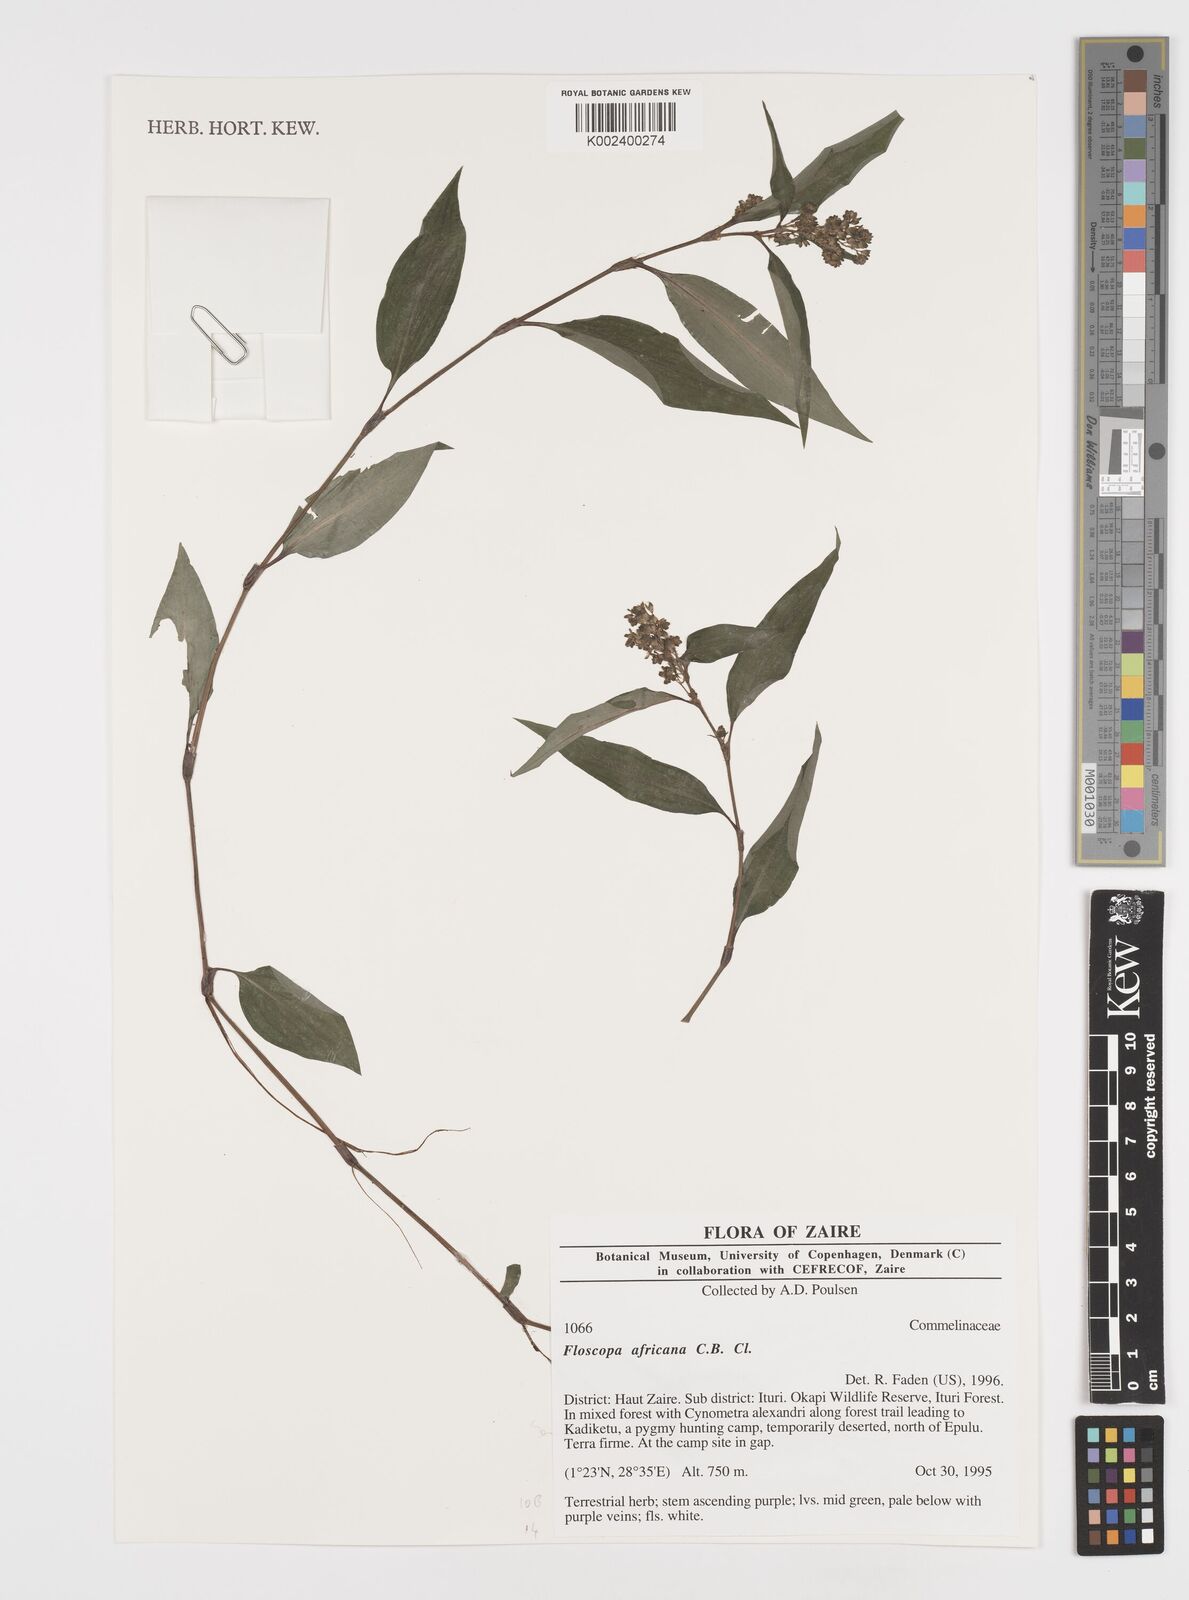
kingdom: Plantae
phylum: Tracheophyta
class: Liliopsida
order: Commelinales
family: Commelinaceae
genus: Floscopa
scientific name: Floscopa africana
